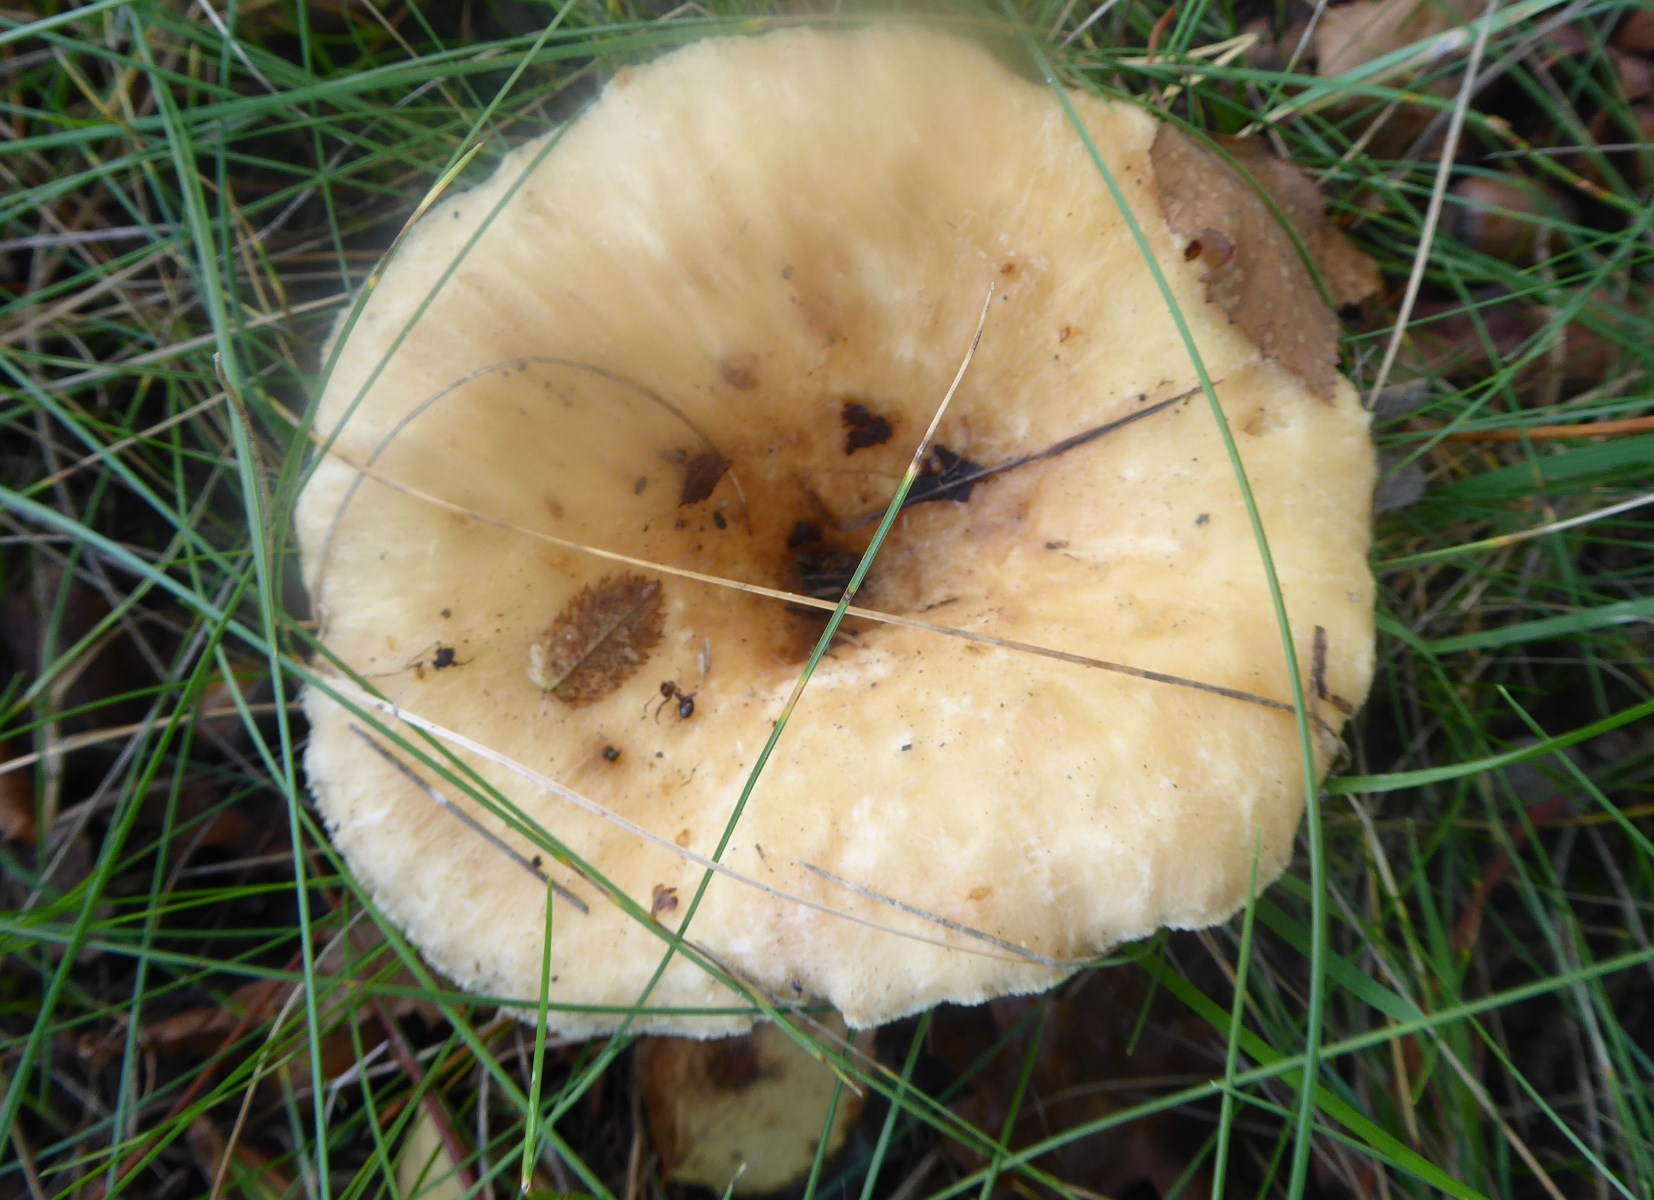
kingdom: Fungi
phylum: Basidiomycota
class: Agaricomycetes
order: Russulales
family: Russulaceae
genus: Lactarius
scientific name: Lactarius pubescens
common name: dunet mælkehat
